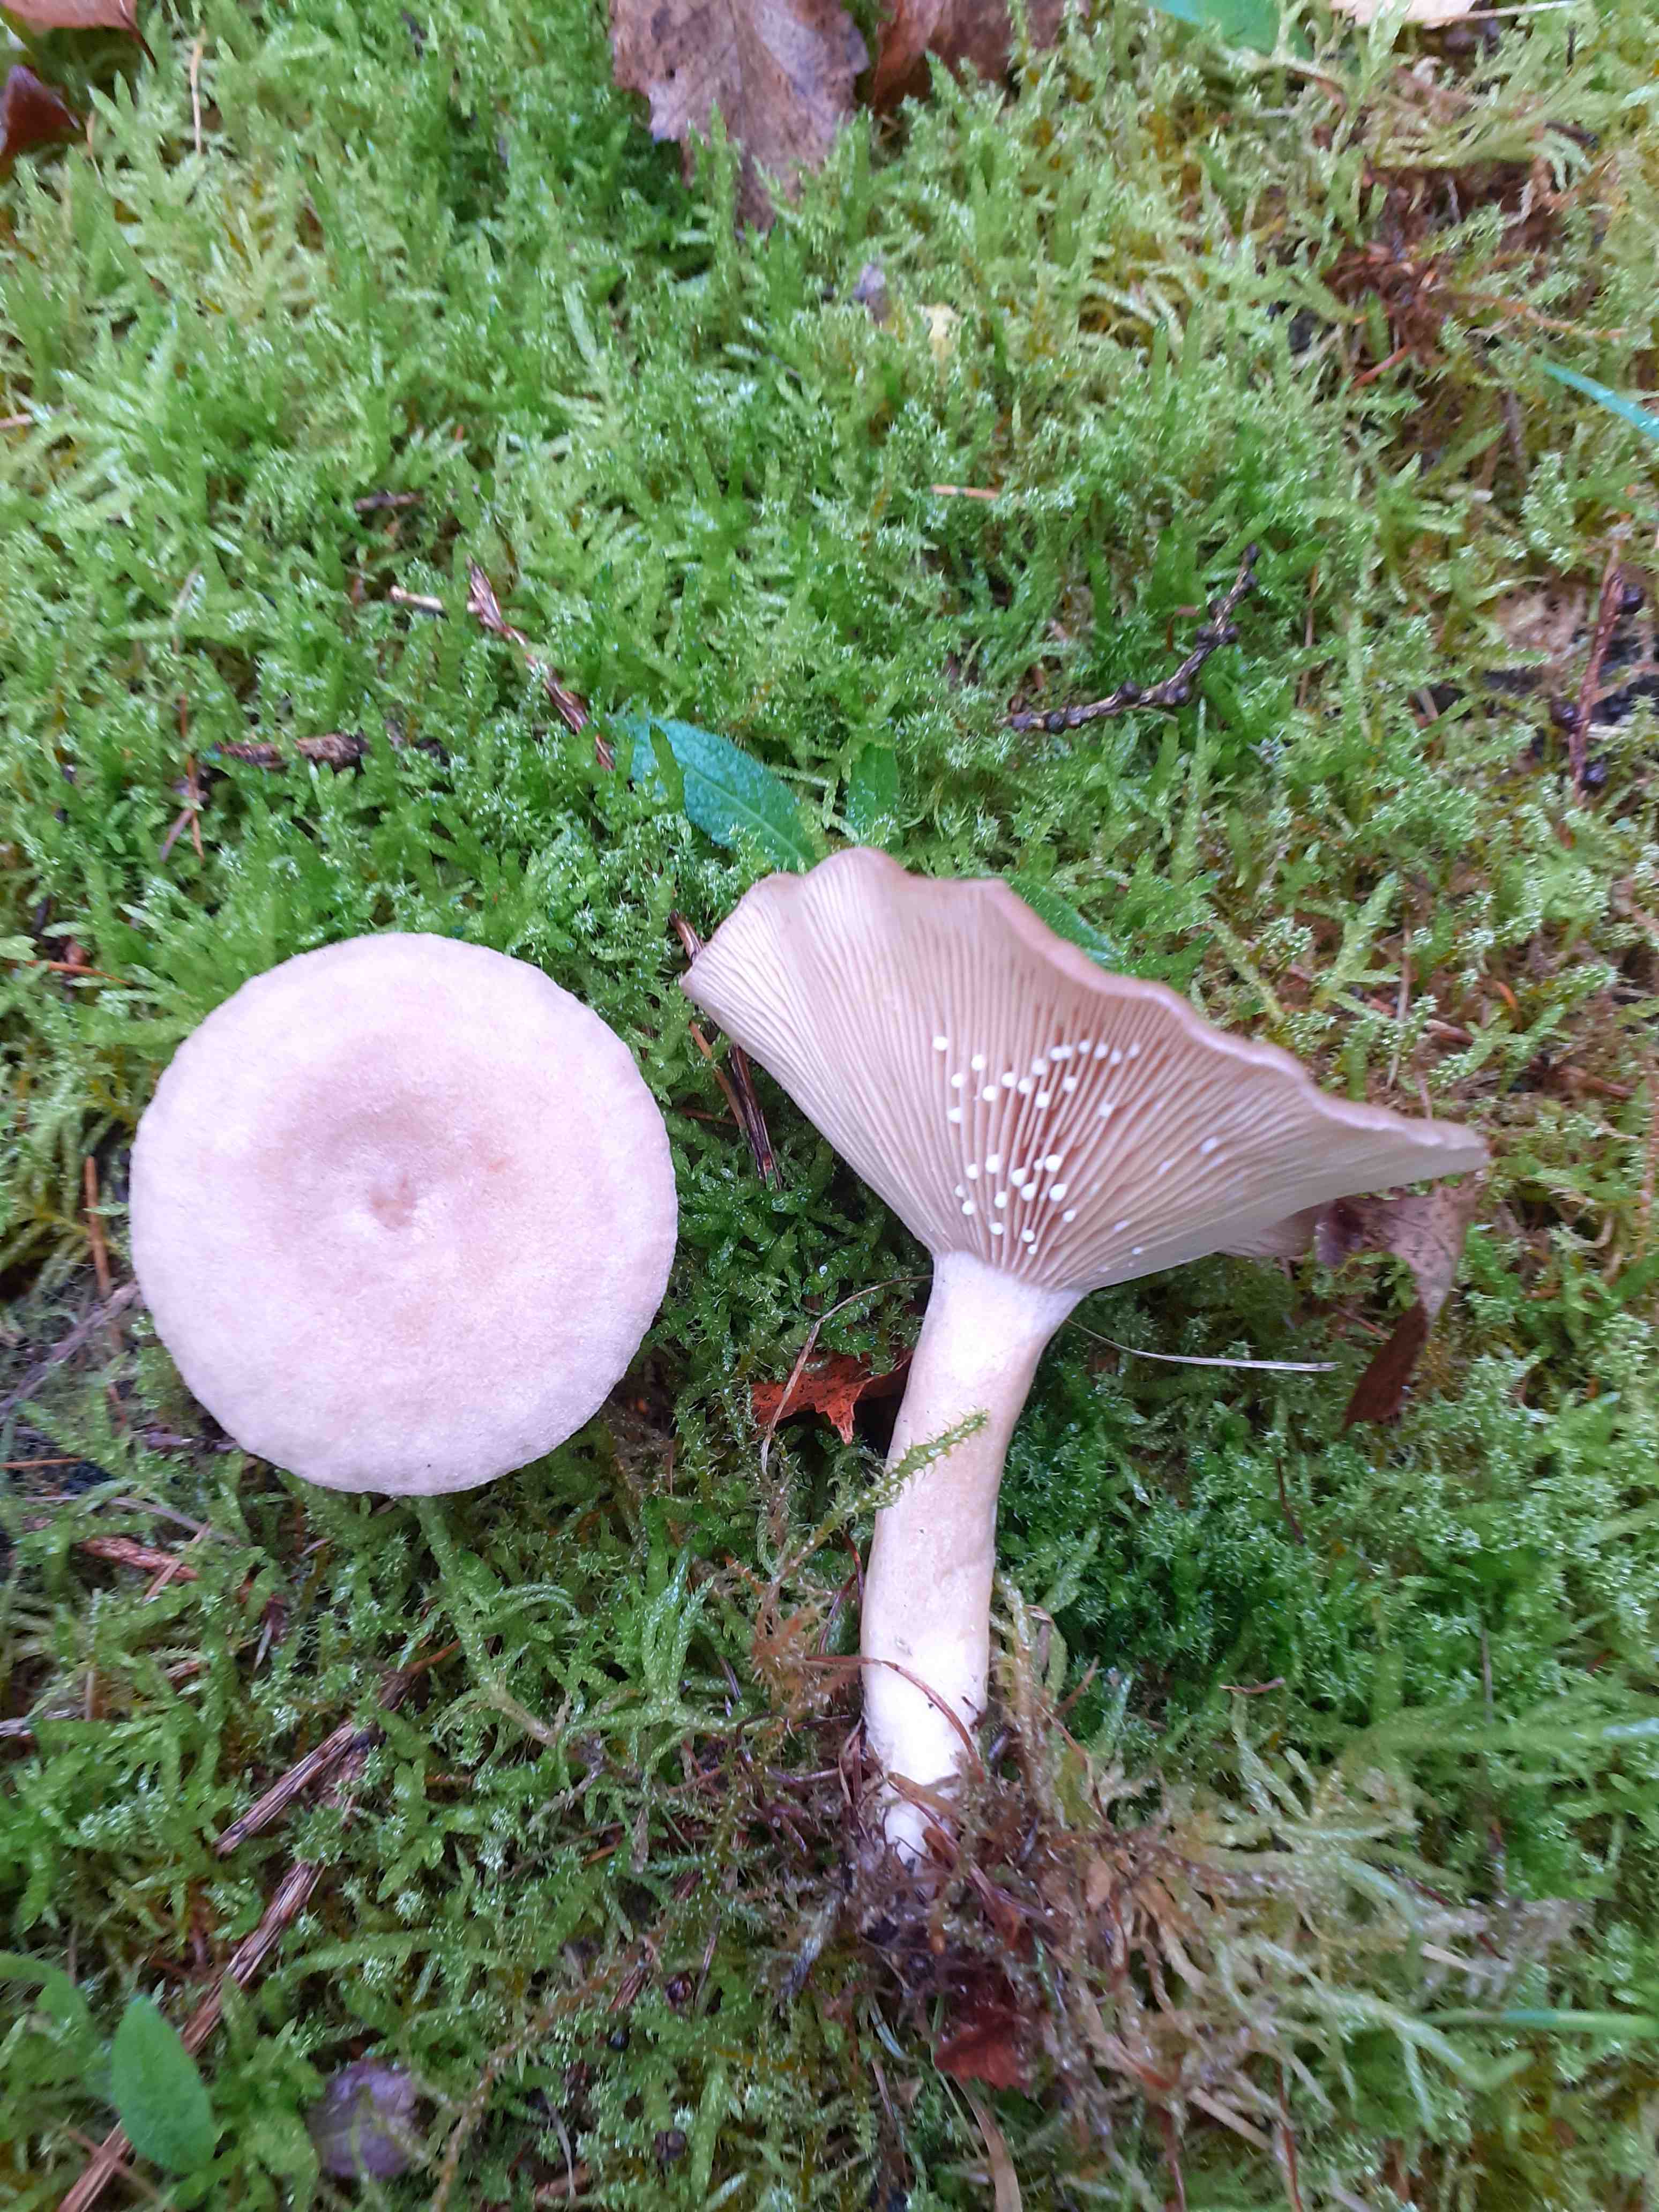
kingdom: Fungi
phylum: Basidiomycota
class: Agaricomycetes
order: Russulales
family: Russulaceae
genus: Lactarius
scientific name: Lactarius glyciosmus
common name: kokos-mælkehat
